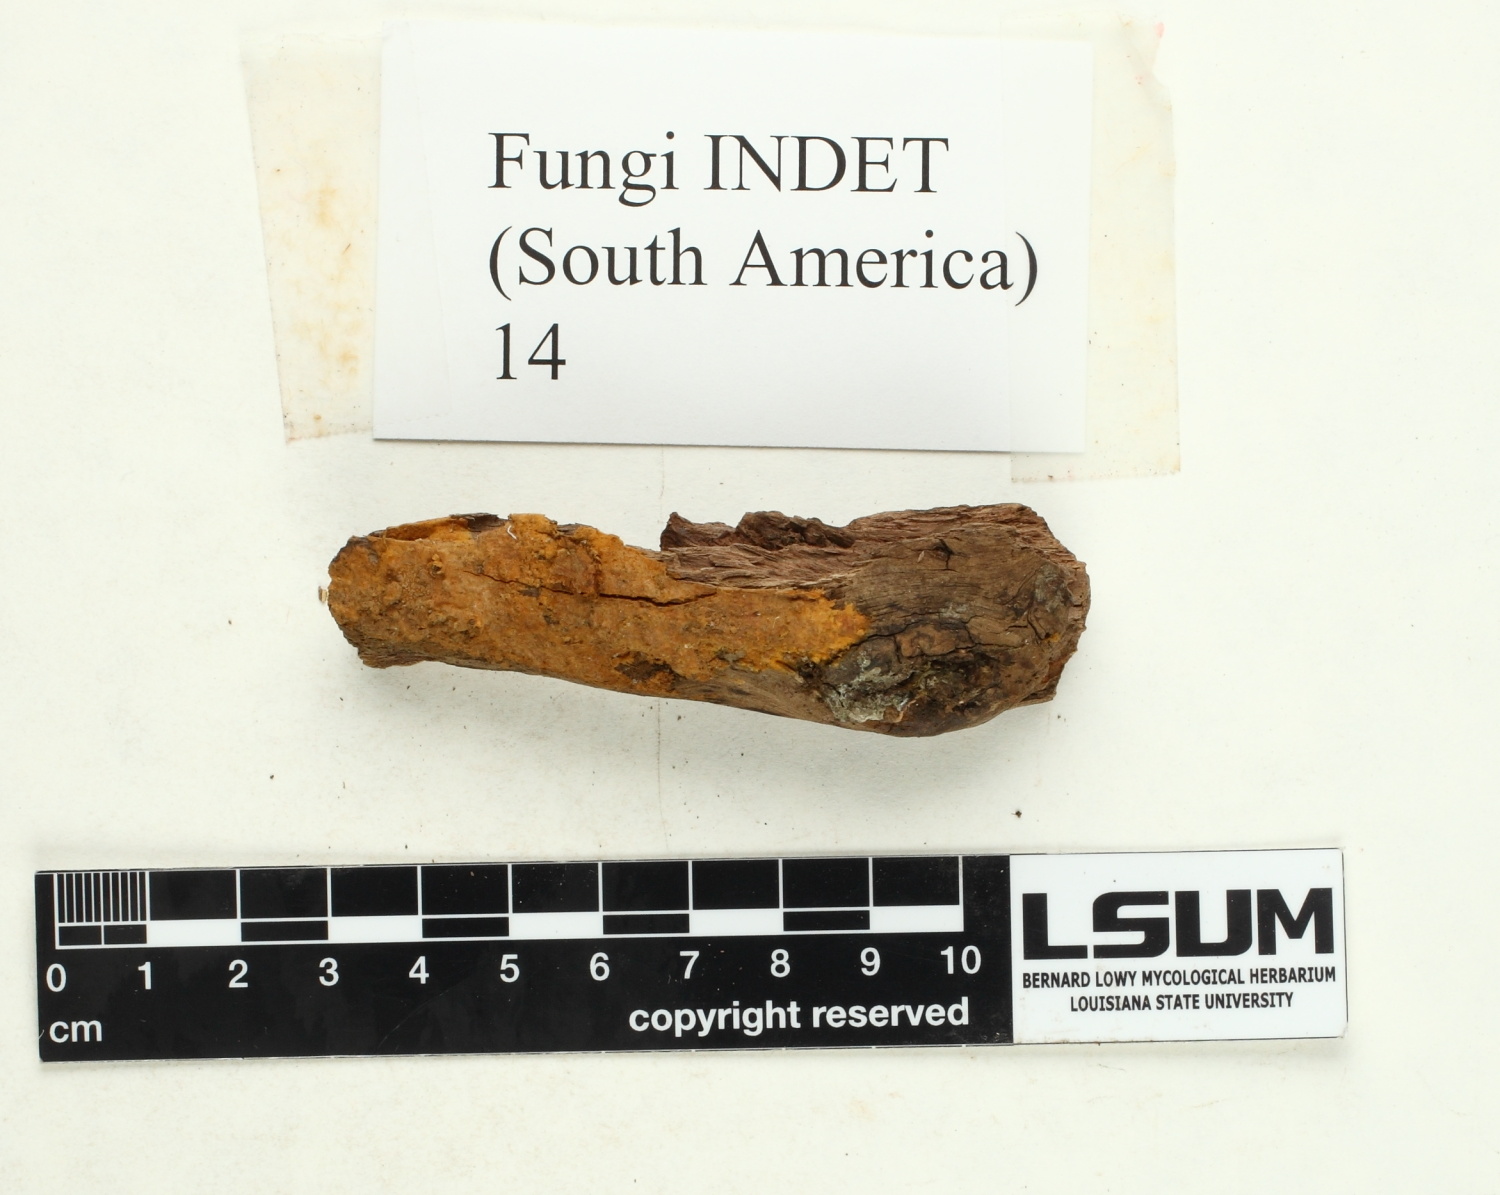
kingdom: Fungi
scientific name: Fungi
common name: Fungi
